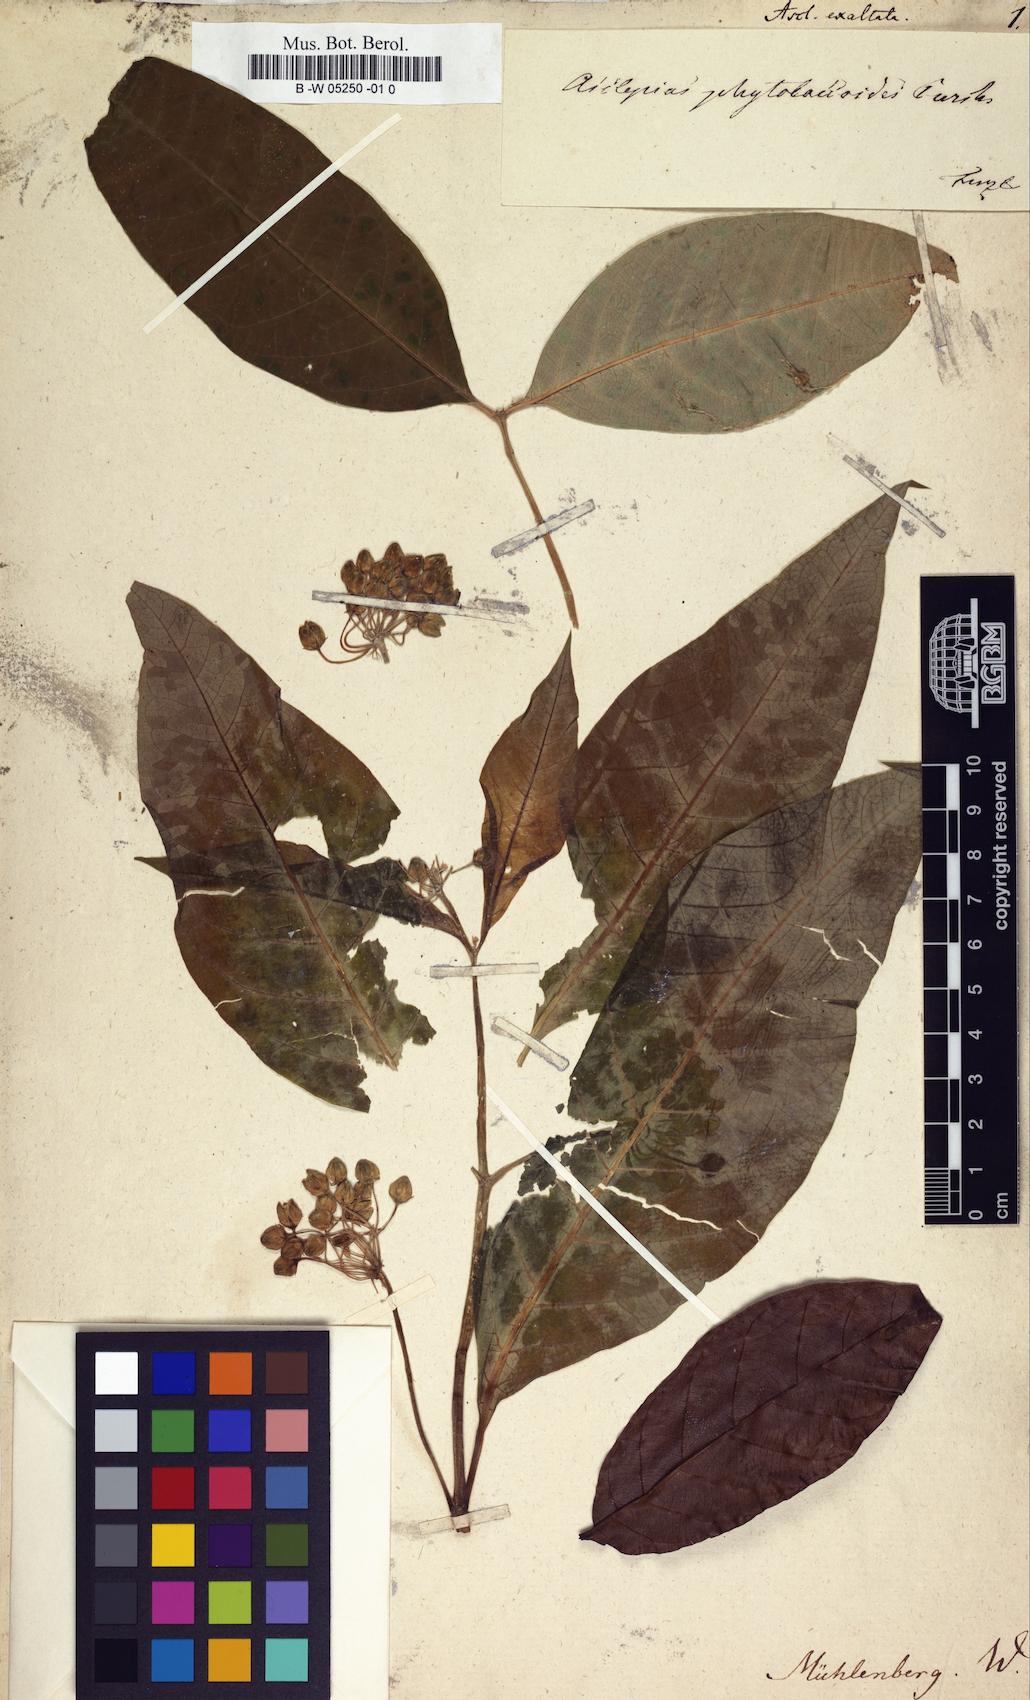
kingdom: Plantae
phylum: Tracheophyta
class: Magnoliopsida
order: Gentianales
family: Apocynaceae
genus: Asclepias
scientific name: Asclepias exaltata
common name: Poke milkweed
